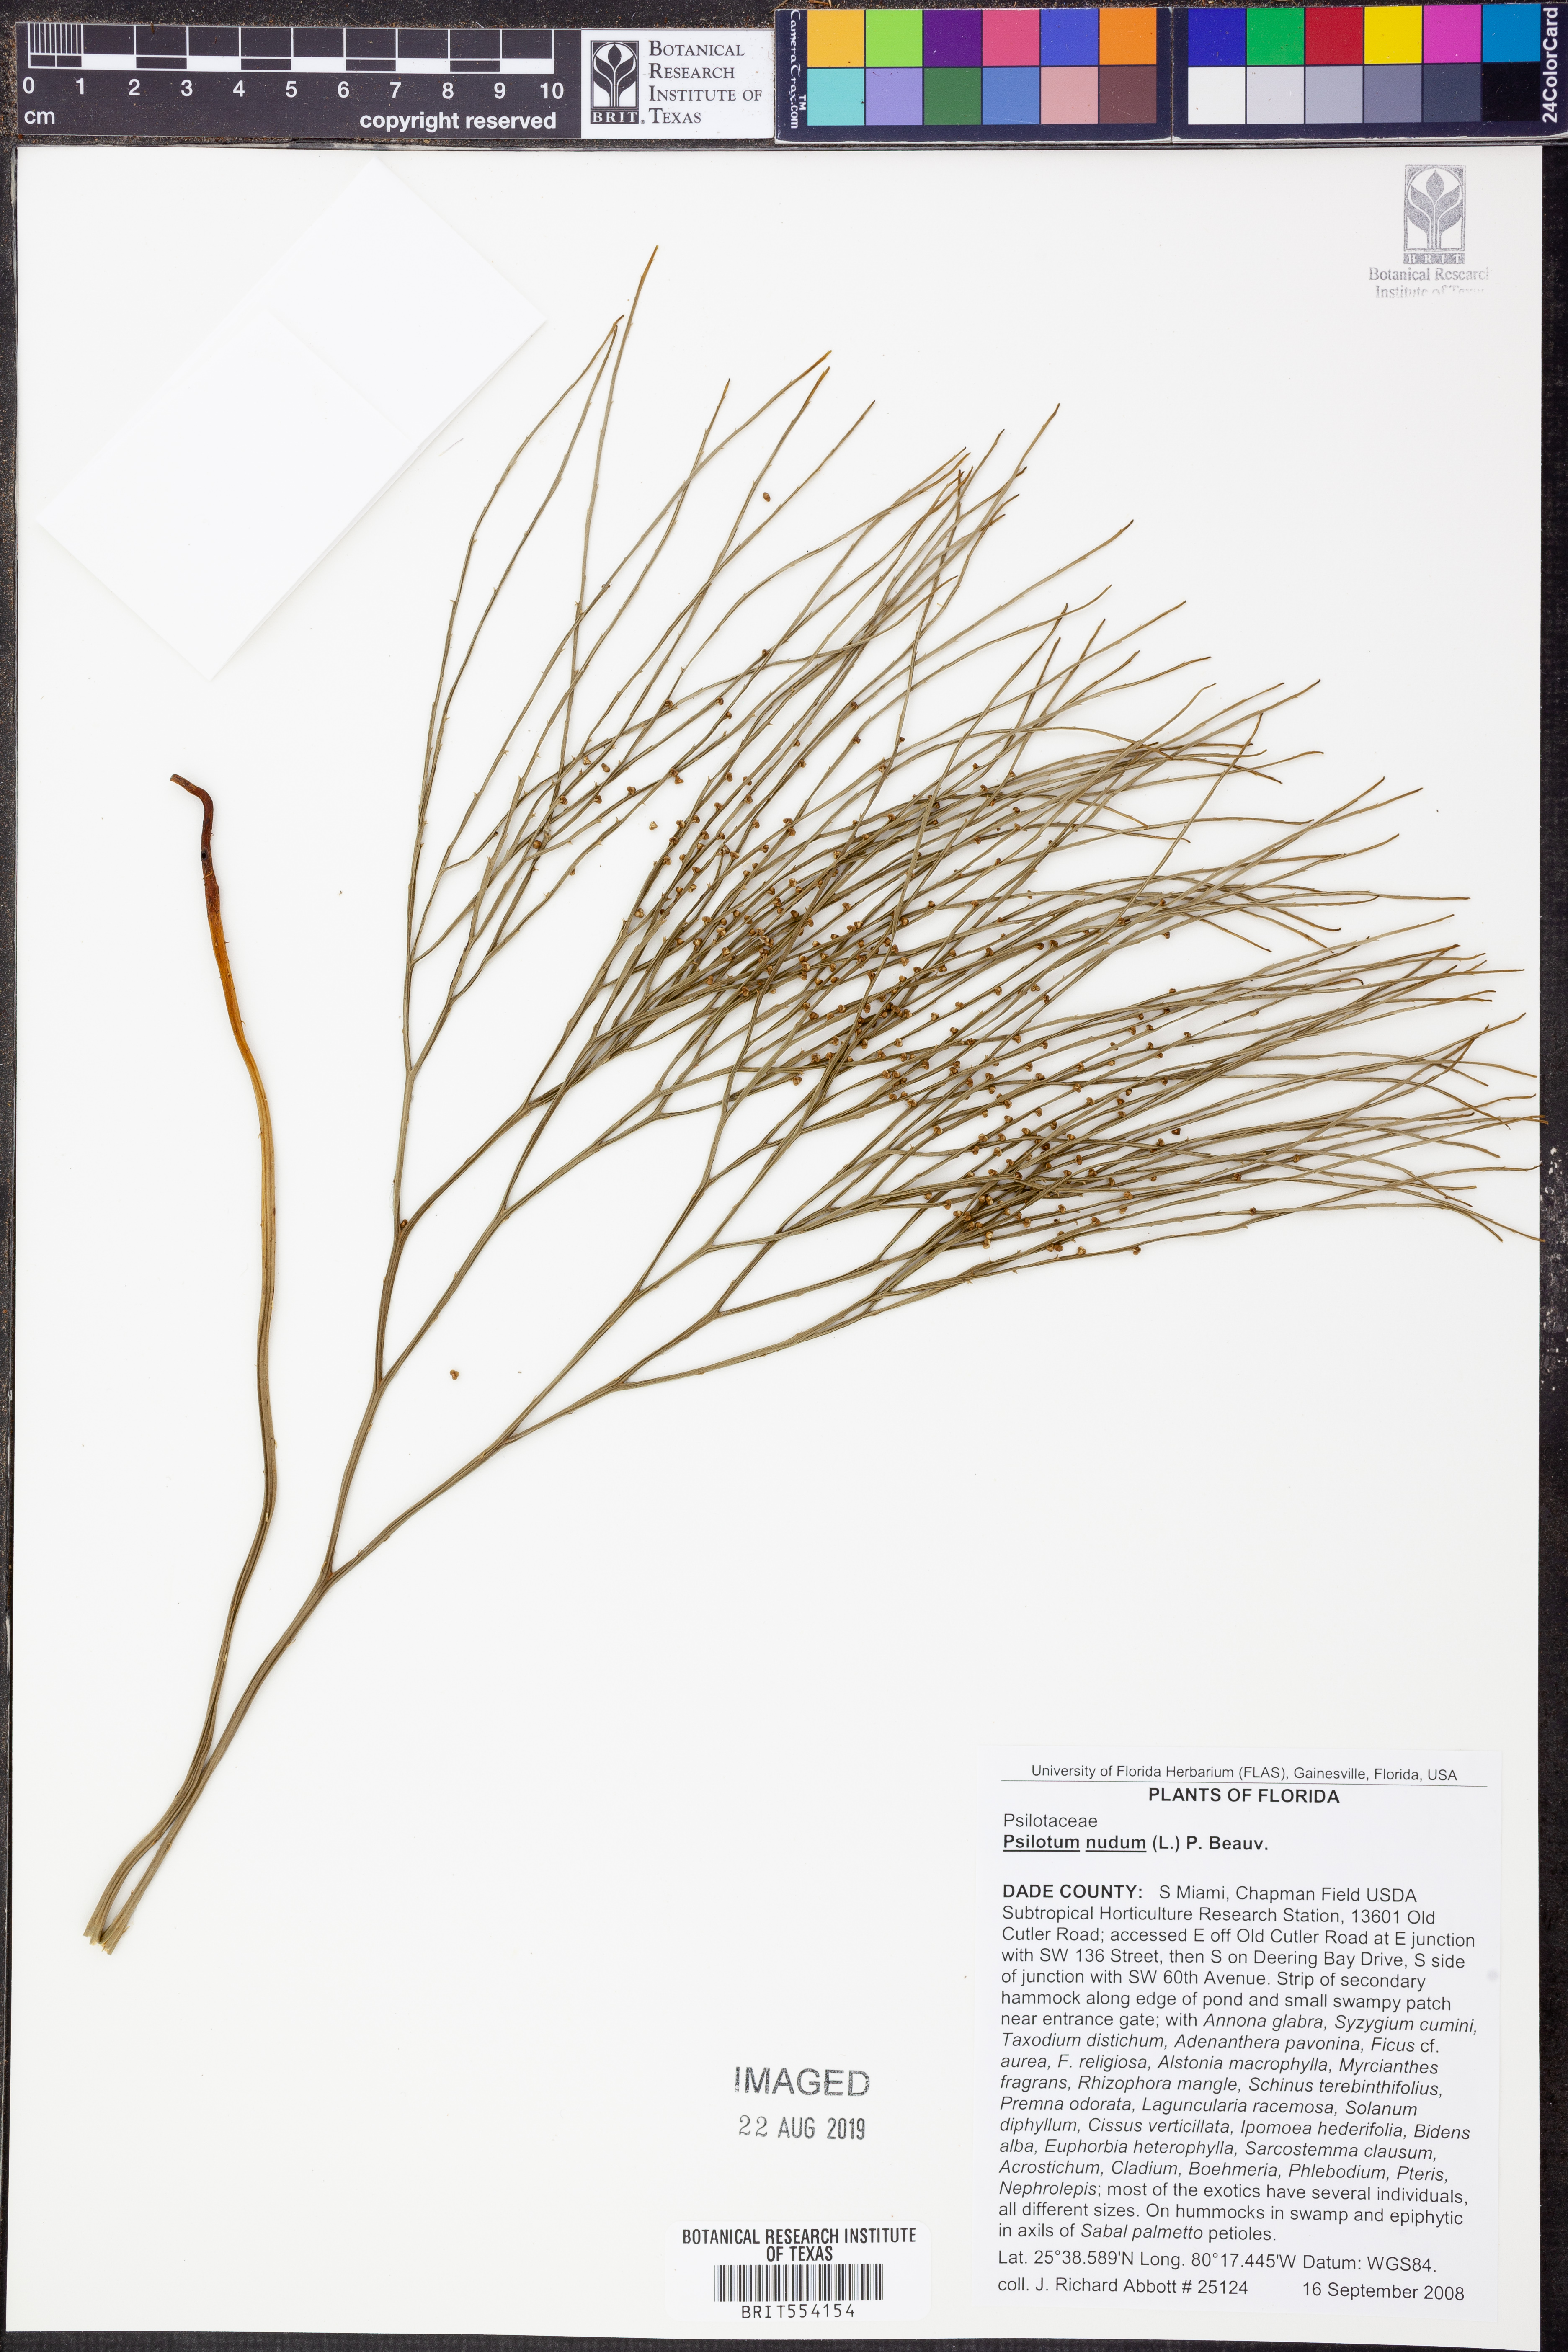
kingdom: Plantae
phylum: Tracheophyta
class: Polypodiopsida
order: Psilotales
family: Psilotaceae
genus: Psilotum
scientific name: Psilotum nudum
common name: Skeleton fork fern
